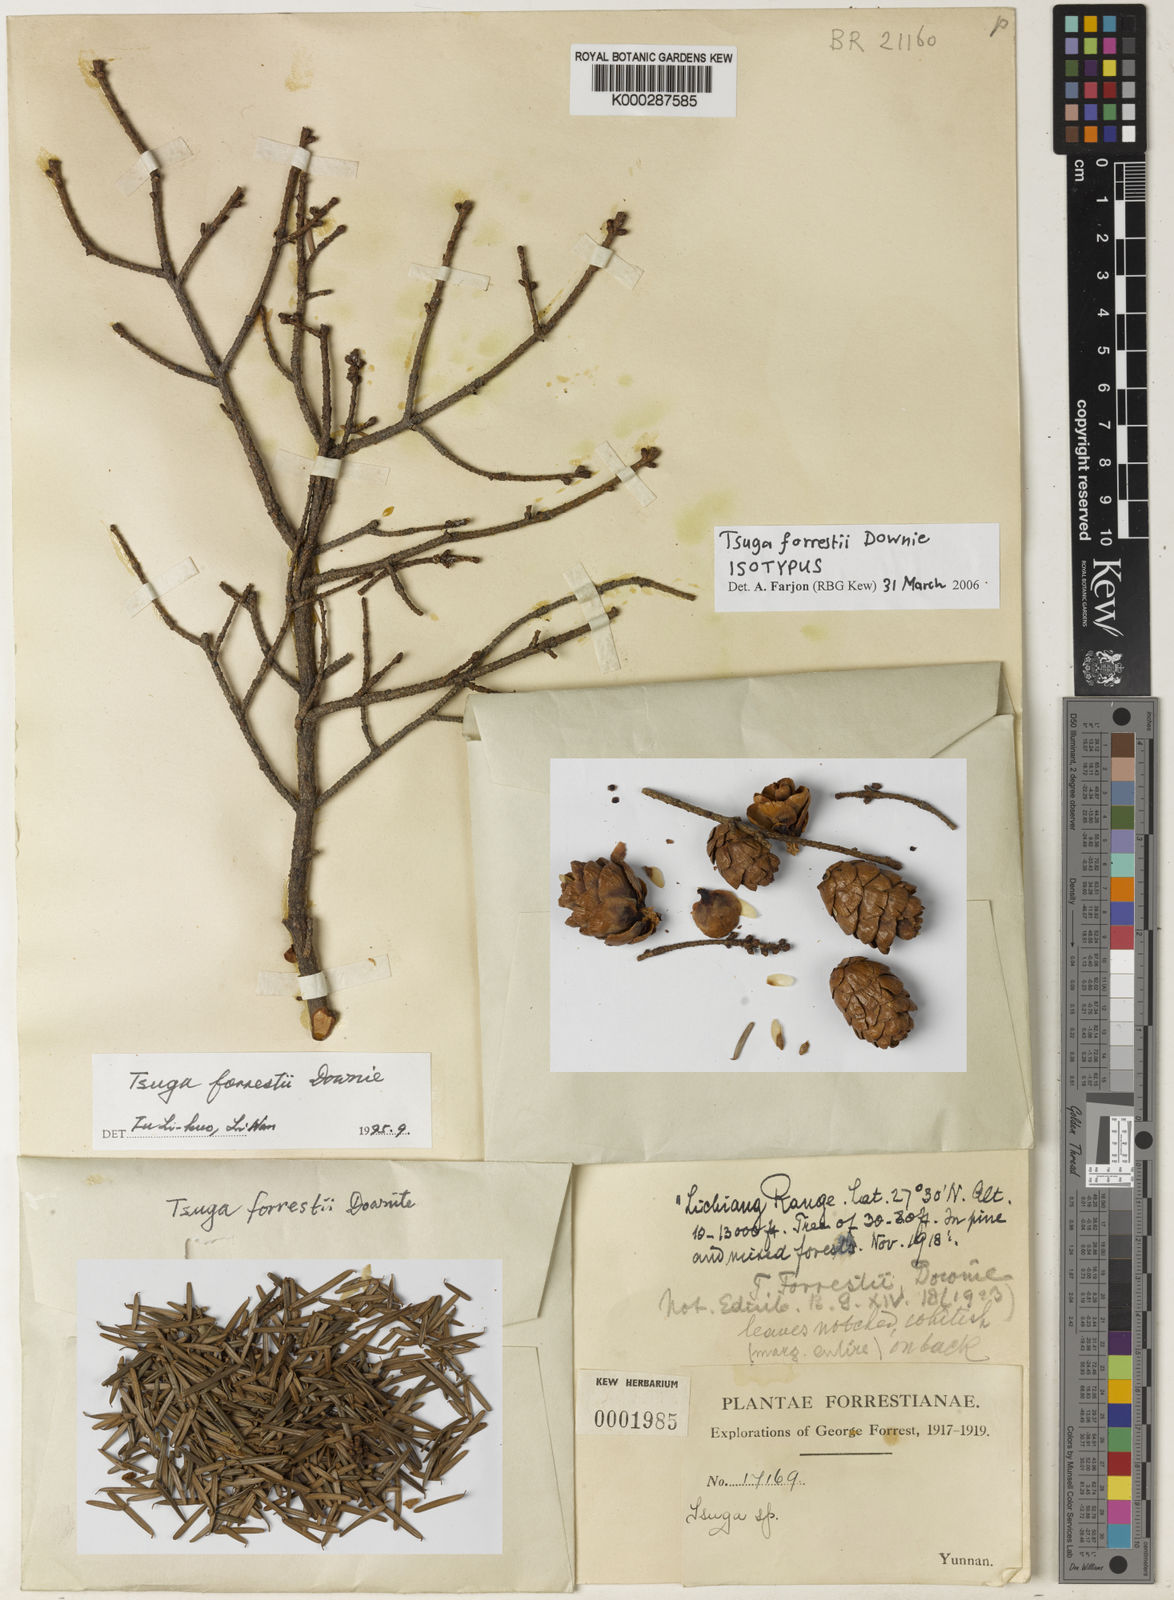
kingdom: Plantae
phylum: Tracheophyta
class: Pinopsida
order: Pinales
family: Pinaceae
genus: Tsuga
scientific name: Tsuga forrestii
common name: Forrest's hemlock
